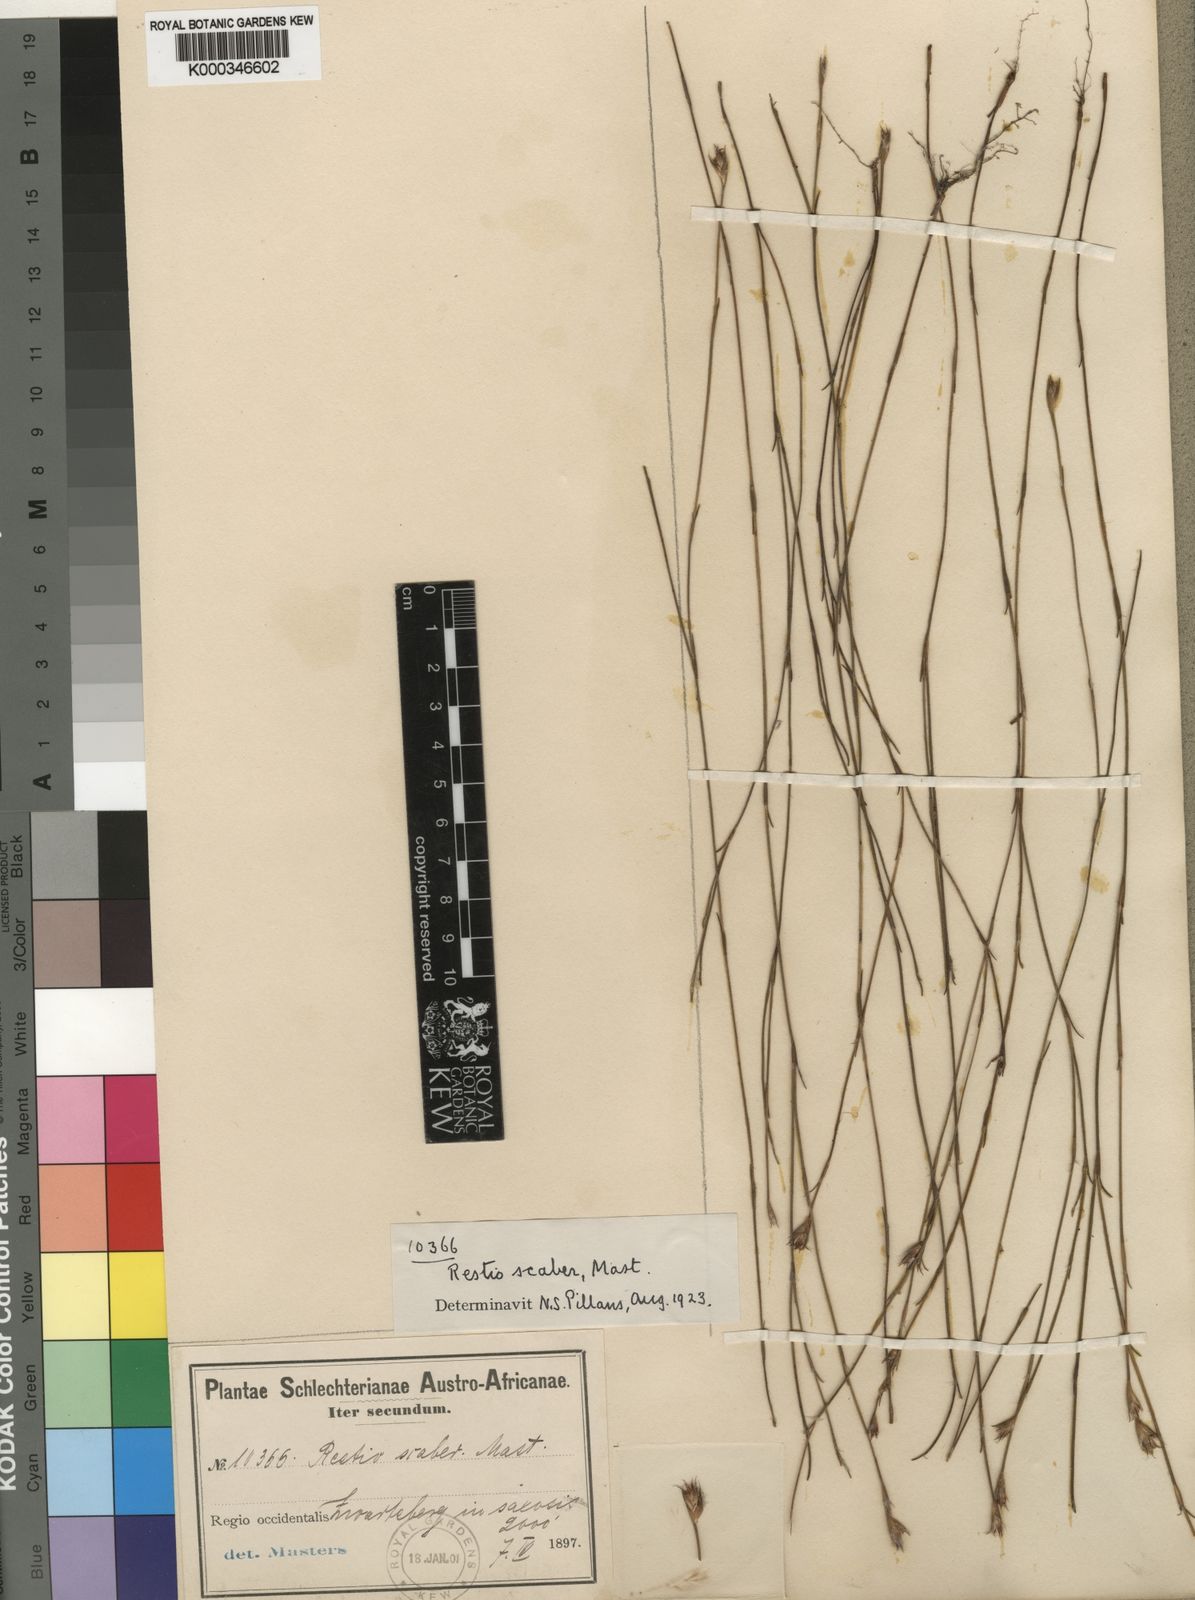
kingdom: Plantae
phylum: Tracheophyta
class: Liliopsida
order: Poales
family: Restionaceae
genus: Restio
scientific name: Restio scaber
